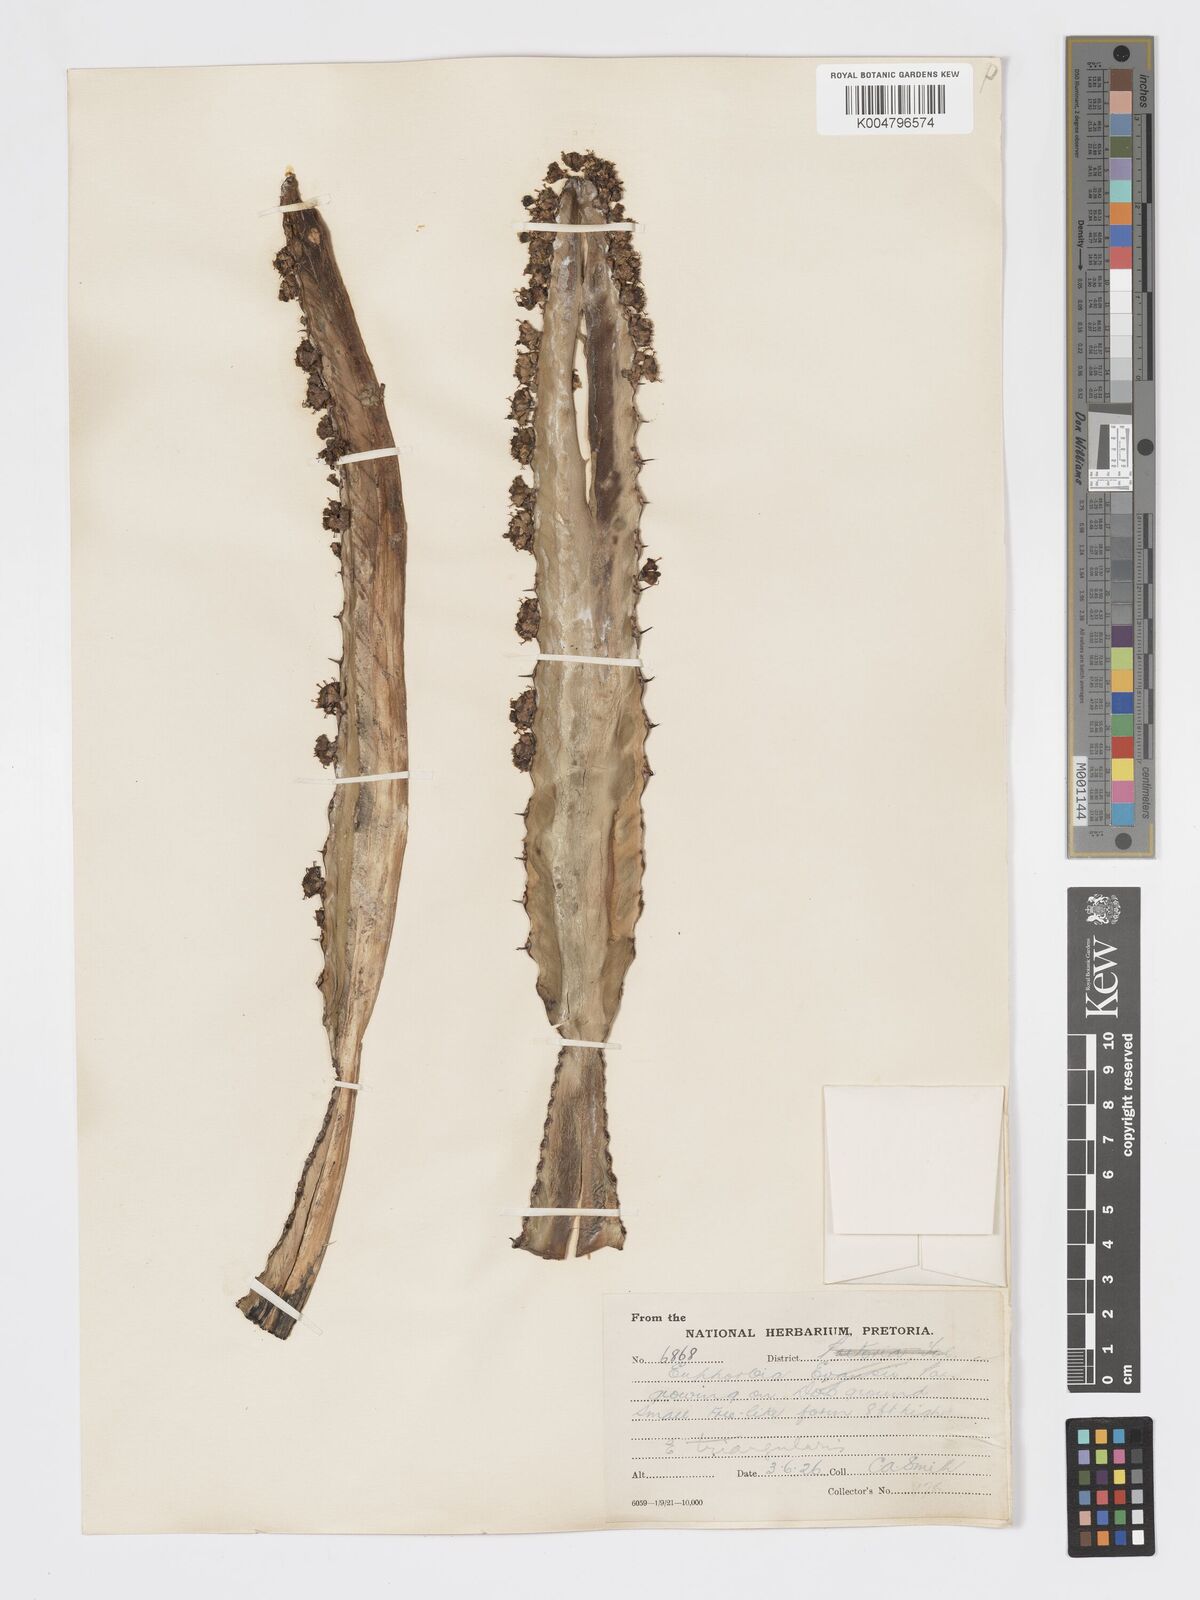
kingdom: Plantae
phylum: Tracheophyta
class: Magnoliopsida
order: Malpighiales
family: Euphorbiaceae
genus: Euphorbia
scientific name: Euphorbia triangularis
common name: Chandelier tree
